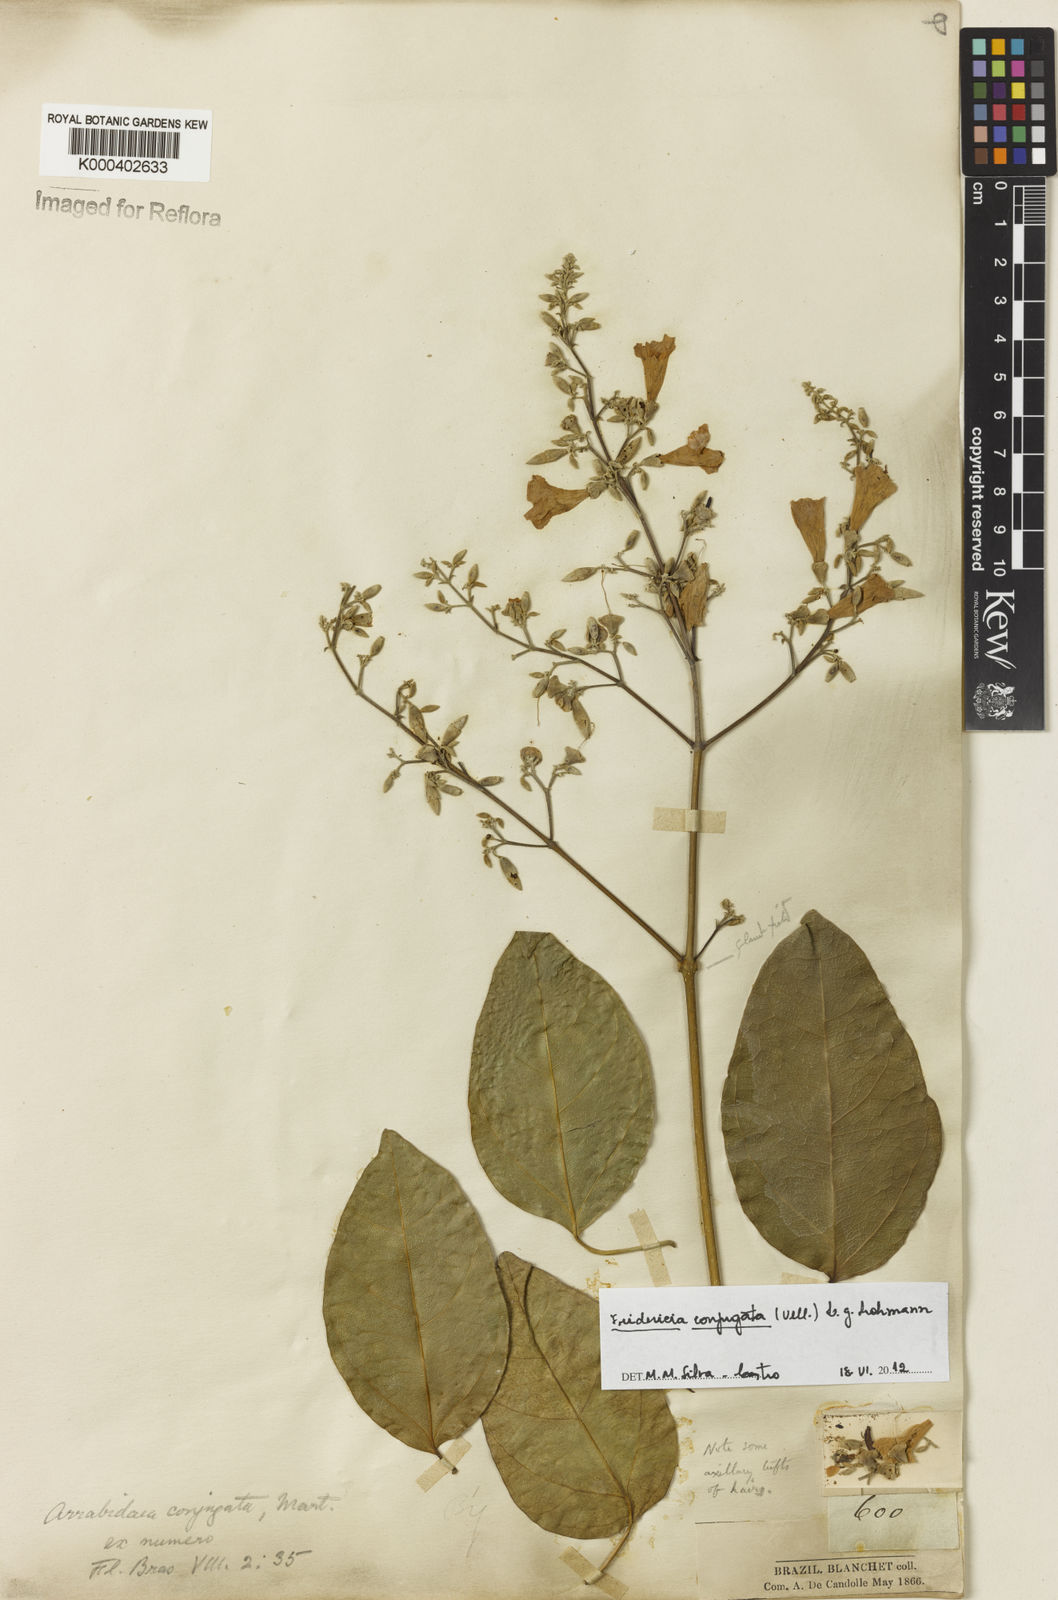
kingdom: Plantae
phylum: Tracheophyta
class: Magnoliopsida
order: Lamiales
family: Bignoniaceae
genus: Fridericia
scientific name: Fridericia conjugata
